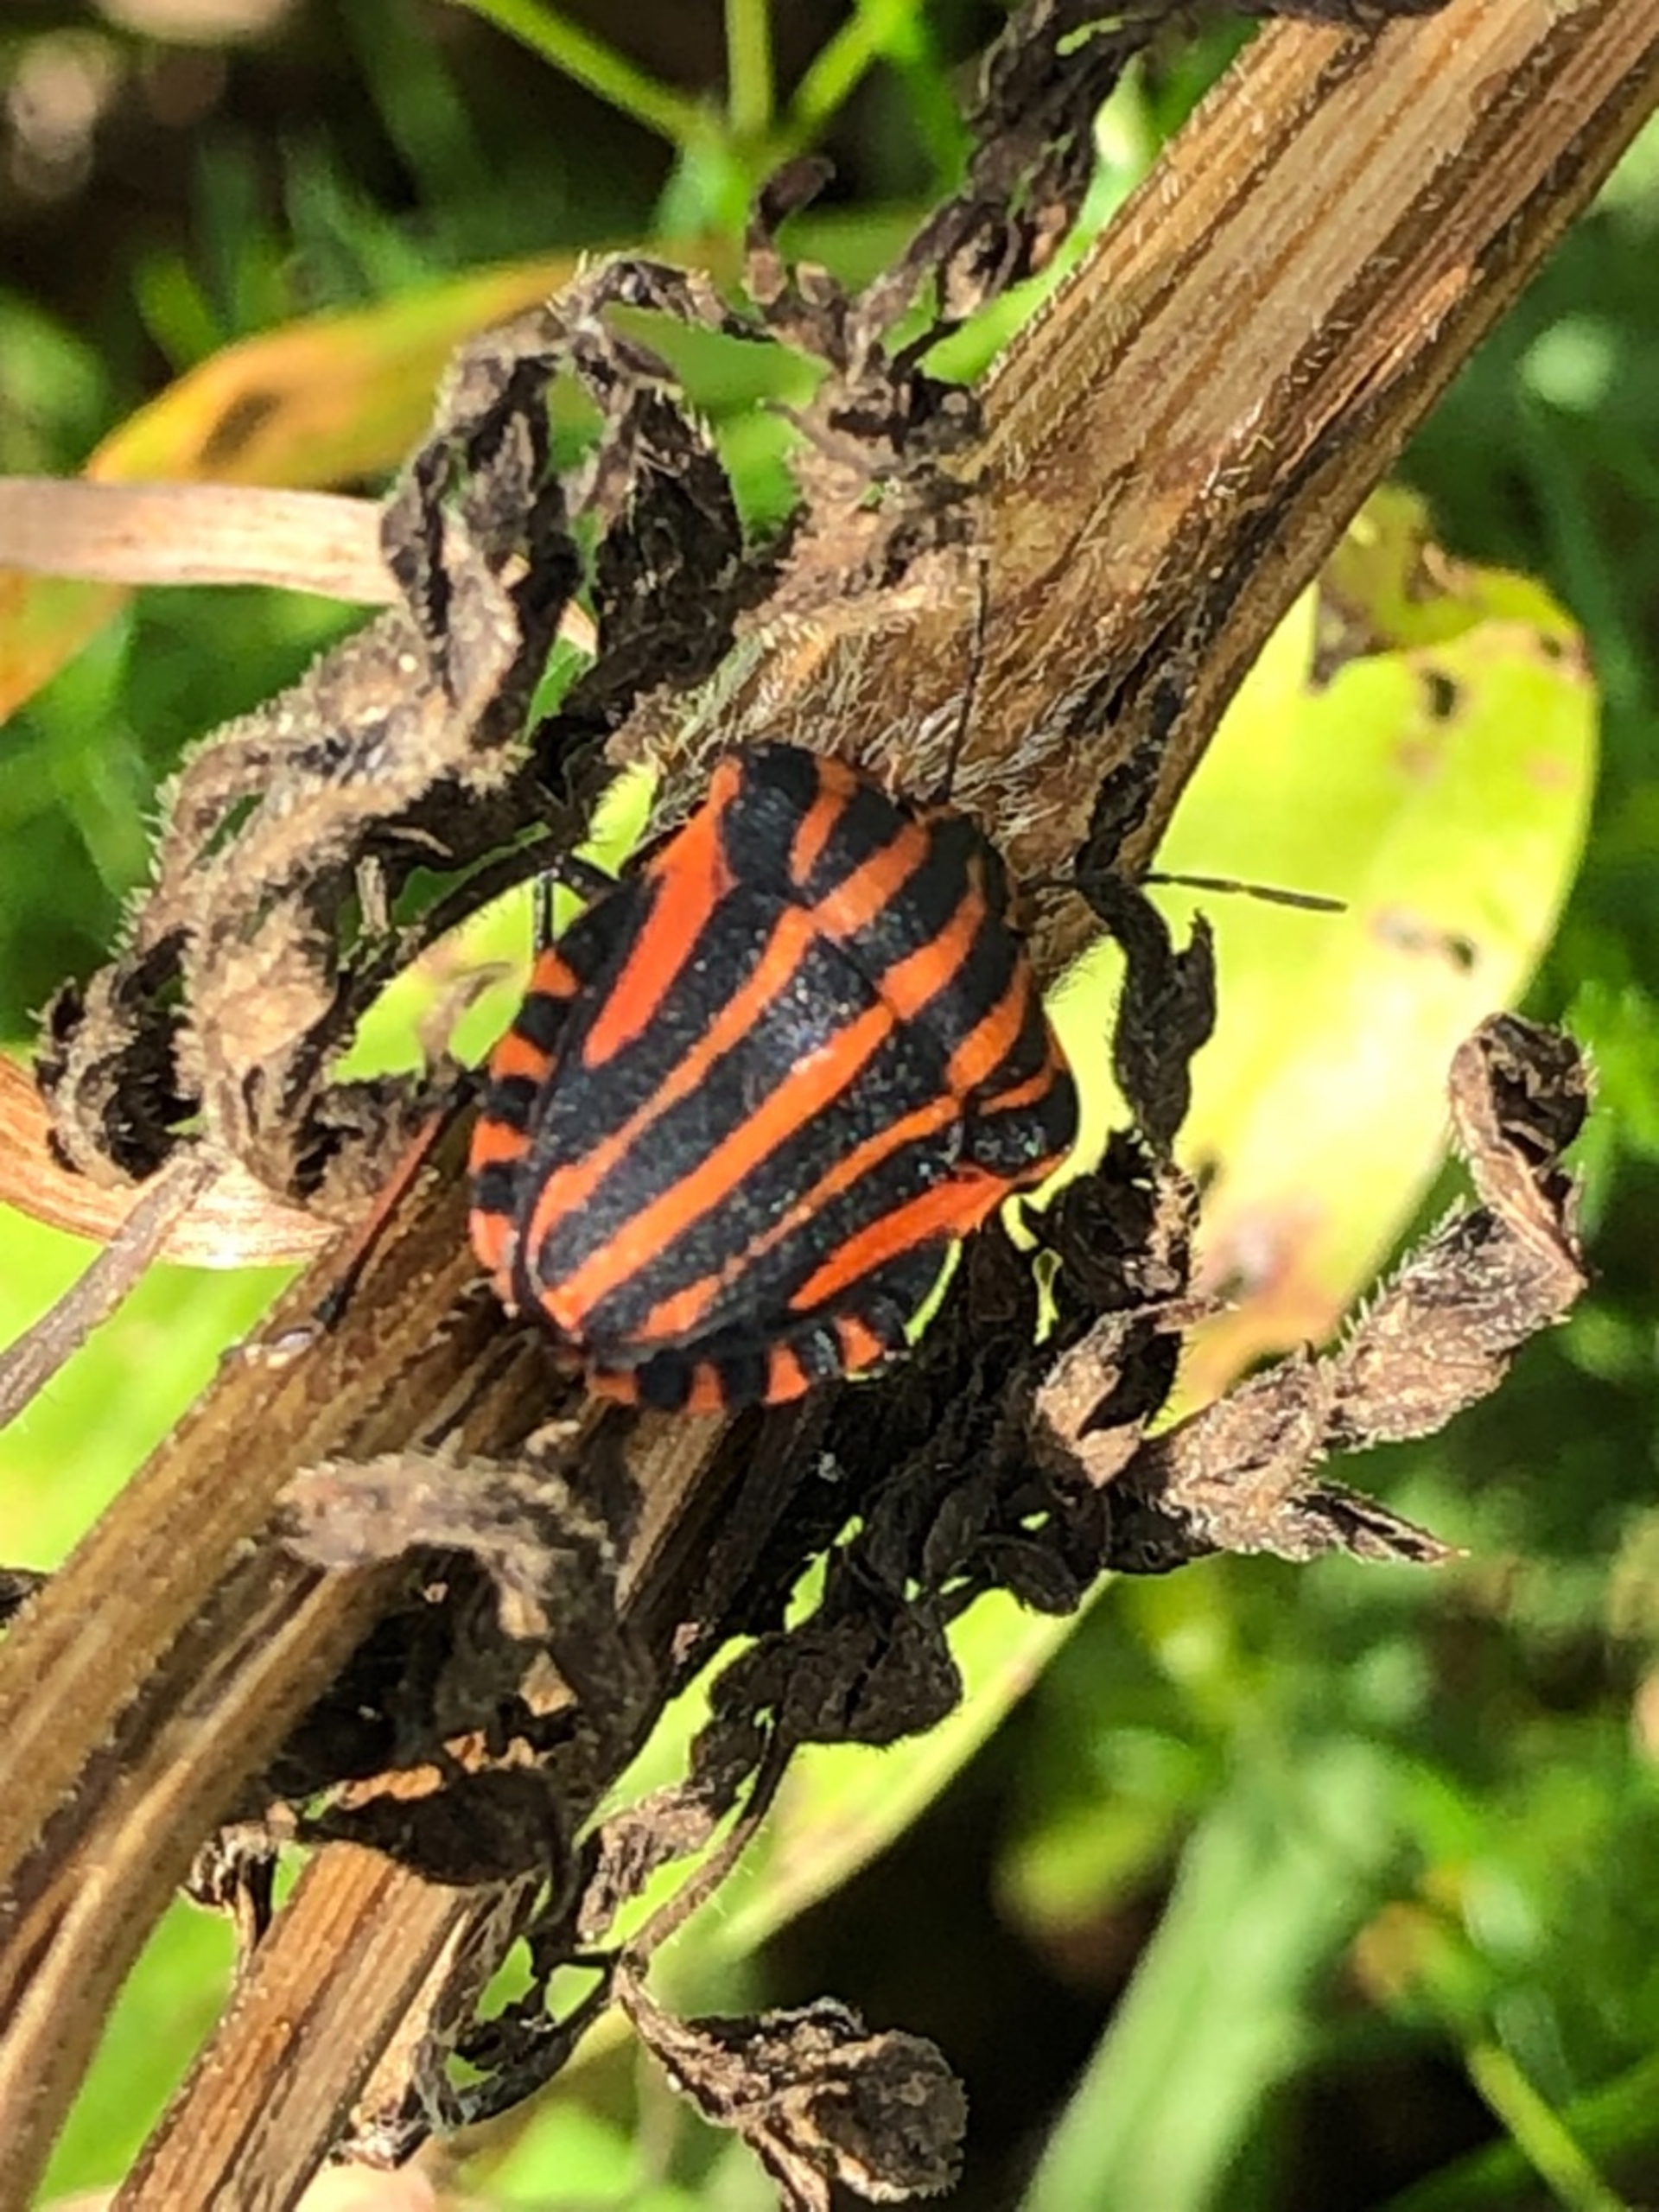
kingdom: Animalia
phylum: Arthropoda
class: Insecta
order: Hemiptera
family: Pentatomidae
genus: Graphosoma
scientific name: Graphosoma italicum
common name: Stribetæge
